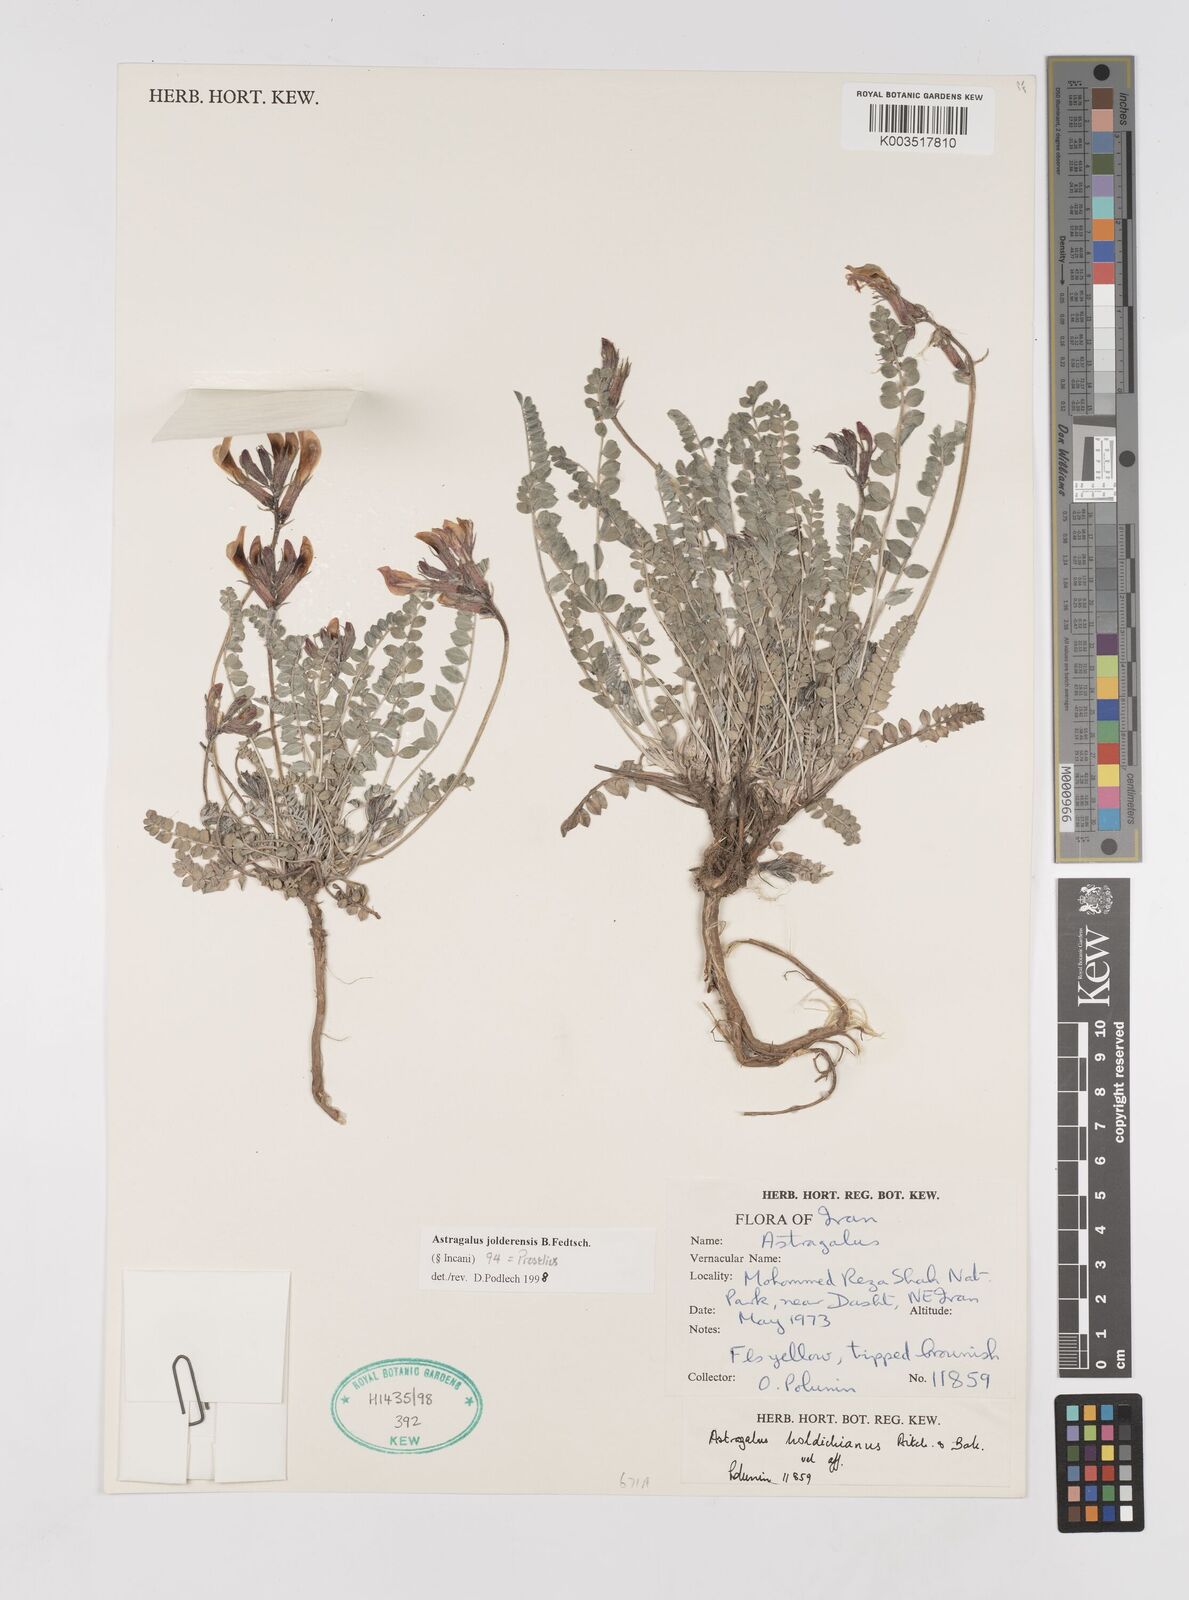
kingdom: Plantae
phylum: Tracheophyta
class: Magnoliopsida
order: Fabales
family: Fabaceae
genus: Astragalus
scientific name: Astragalus jolderensis
